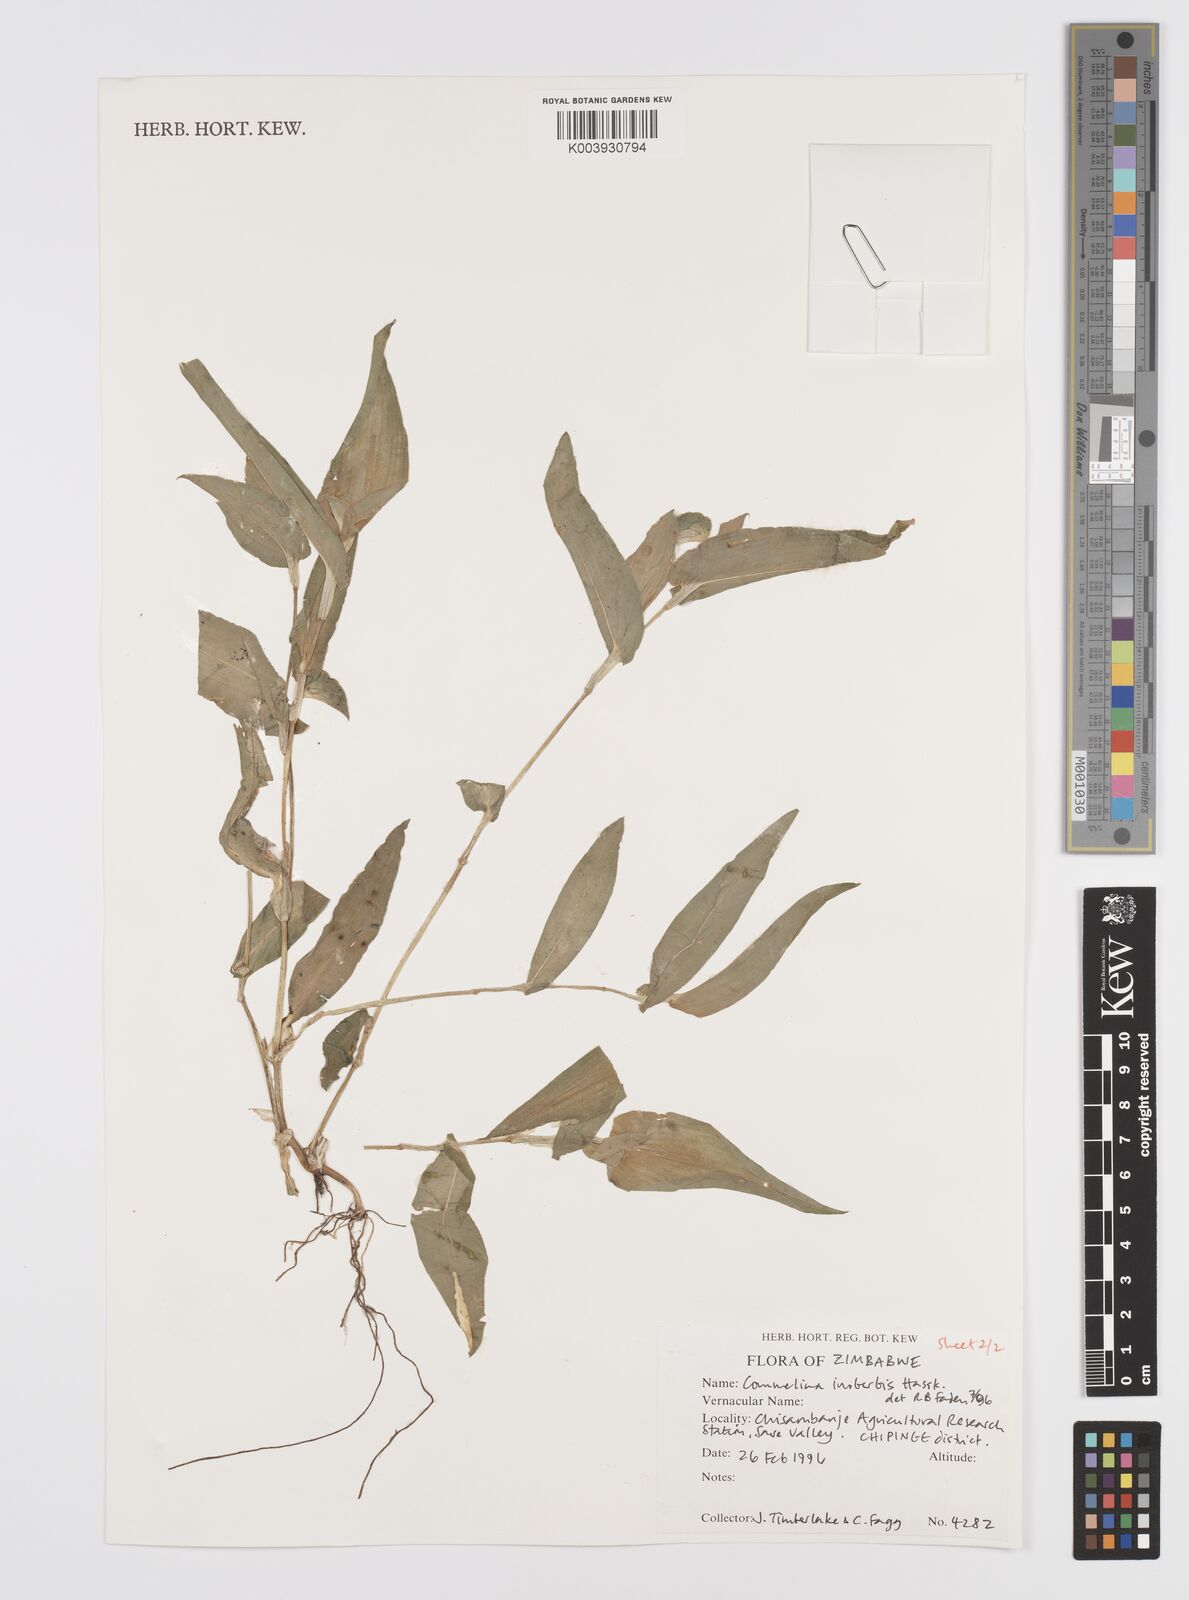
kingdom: Plantae
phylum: Tracheophyta
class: Liliopsida
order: Commelinales
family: Commelinaceae
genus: Commelina
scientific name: Commelina kotschyi
